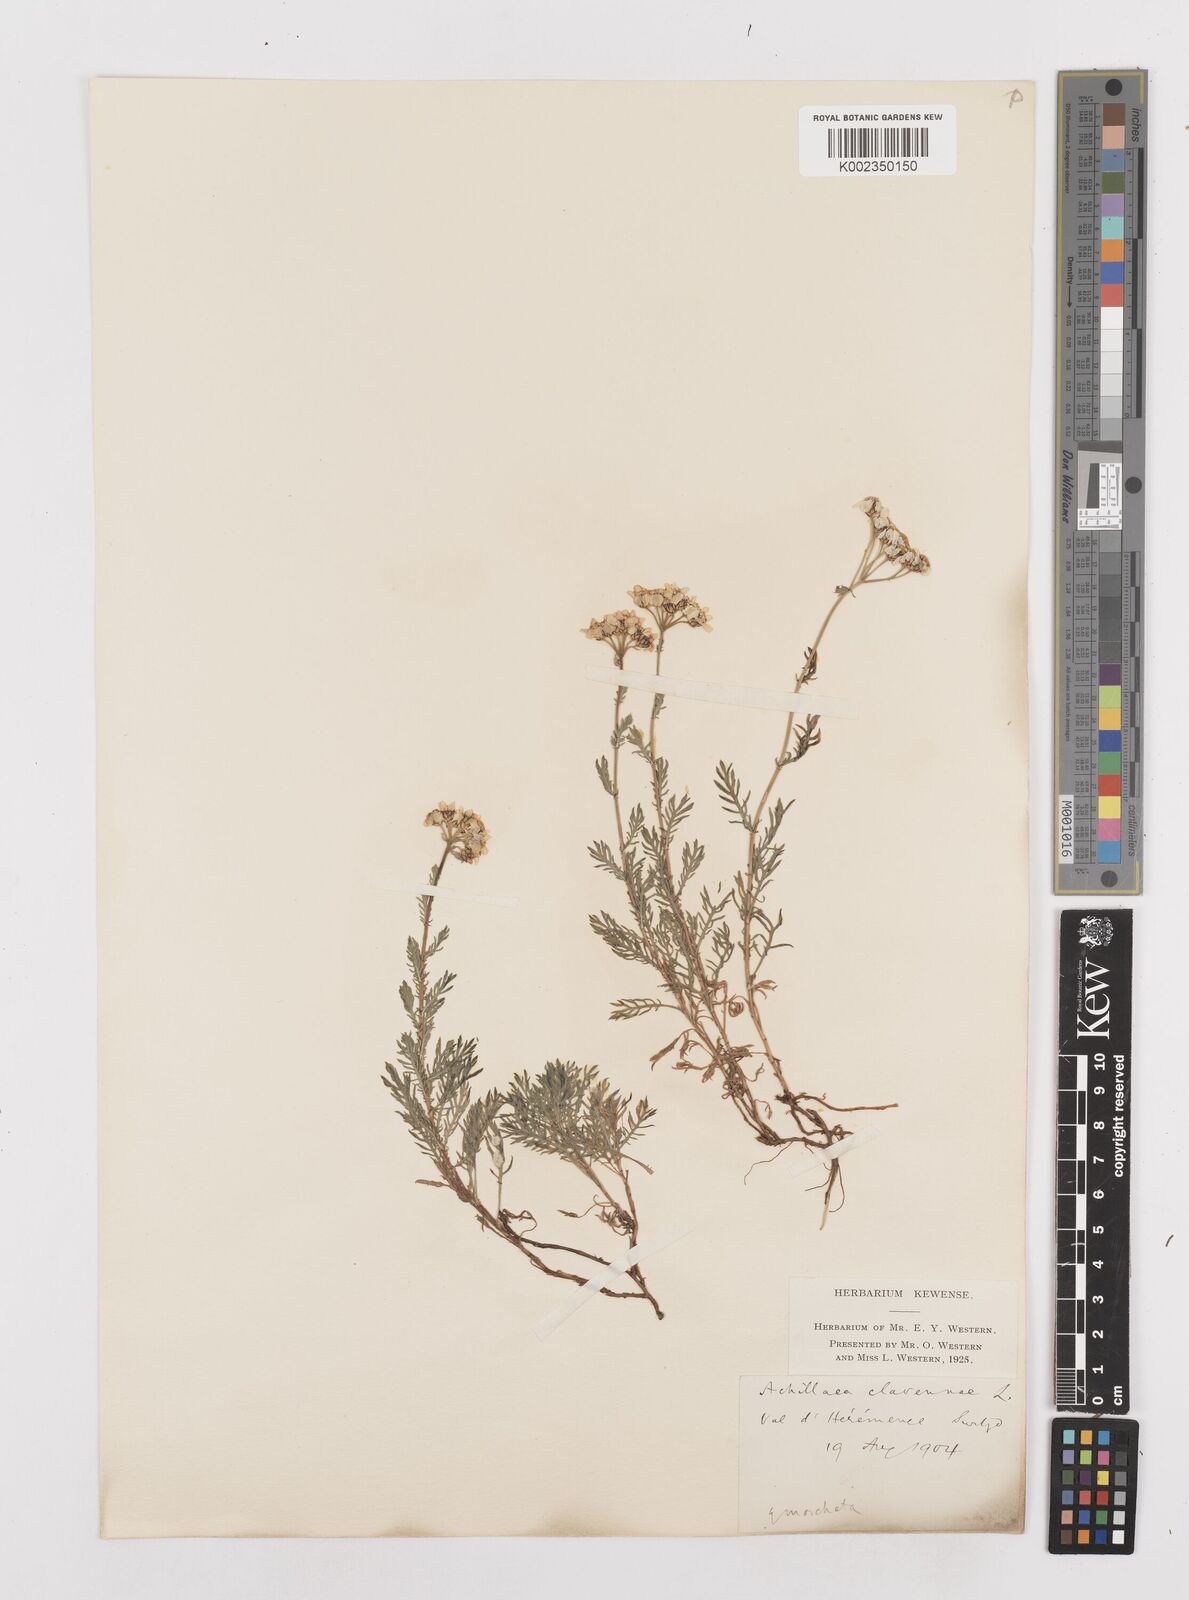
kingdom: Plantae
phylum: Tracheophyta
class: Magnoliopsida
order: Asterales
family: Asteraceae
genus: Achillea
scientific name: Achillea atrata
